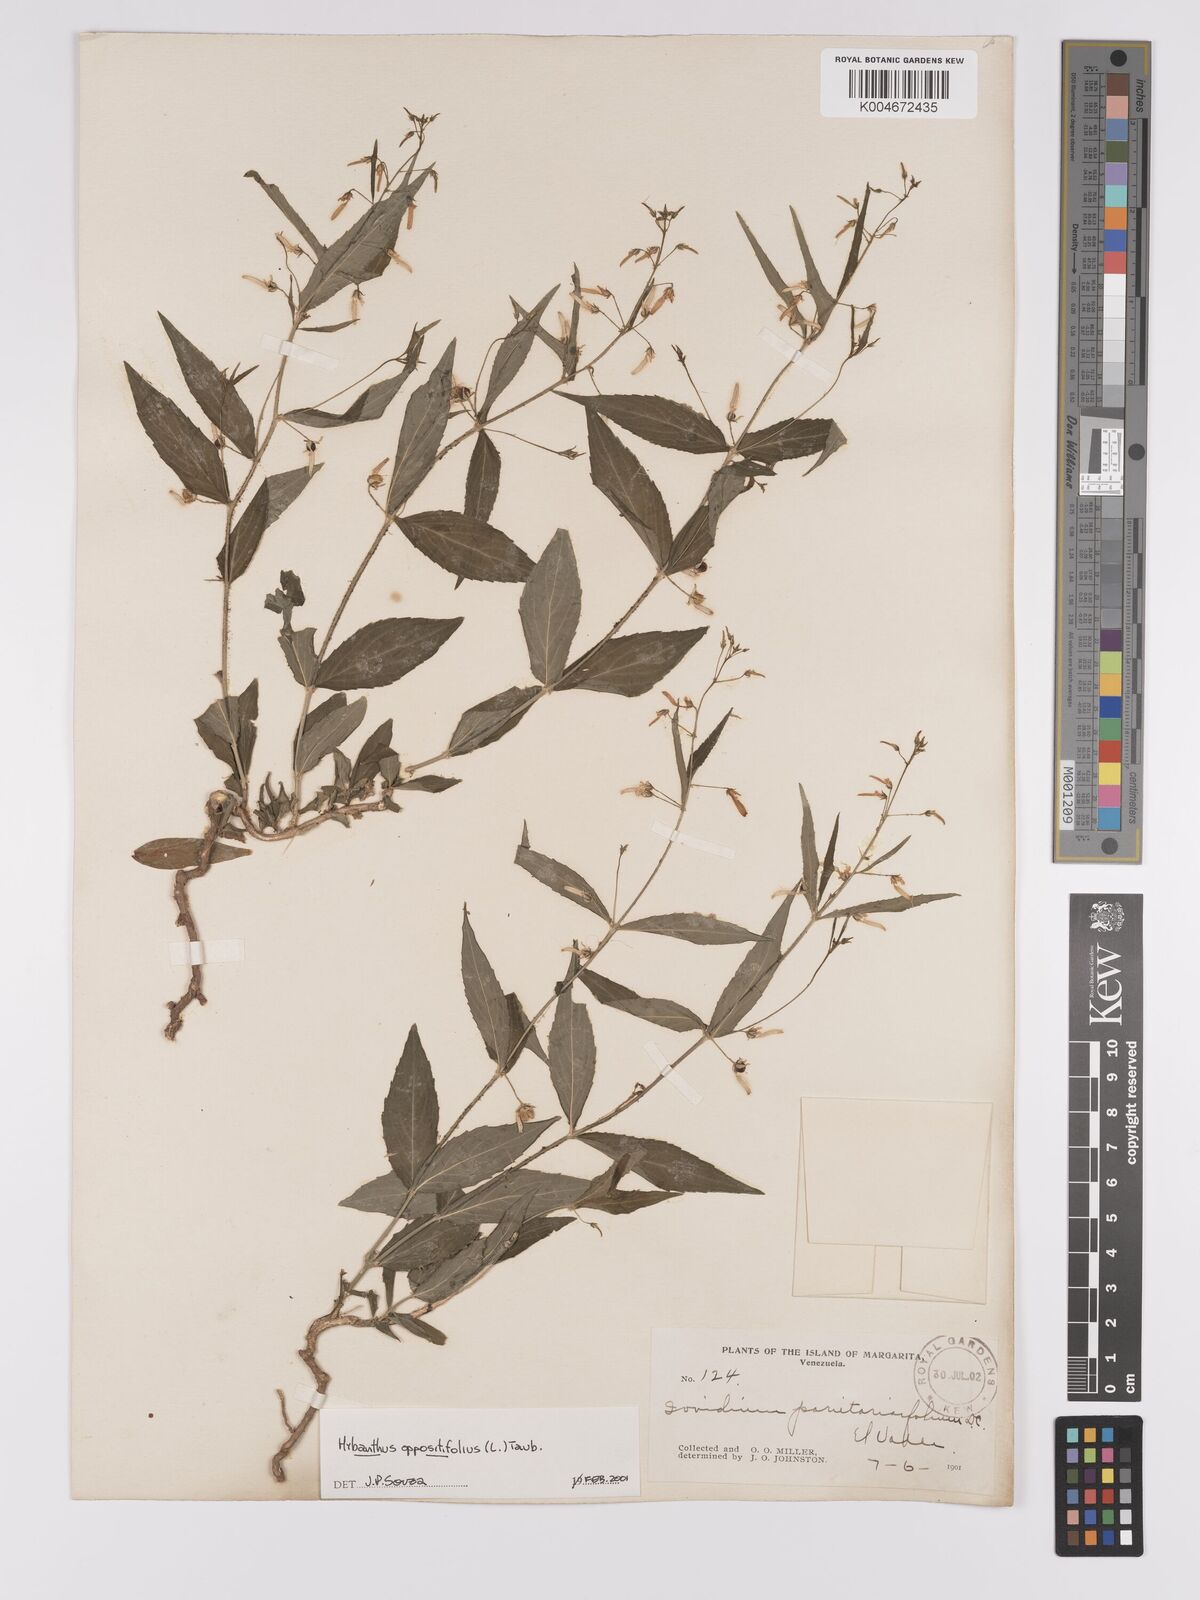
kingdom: Plantae
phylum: Tracheophyta
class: Magnoliopsida
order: Malpighiales
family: Violaceae
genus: Pombalia
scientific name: Pombalia oppositifolia
